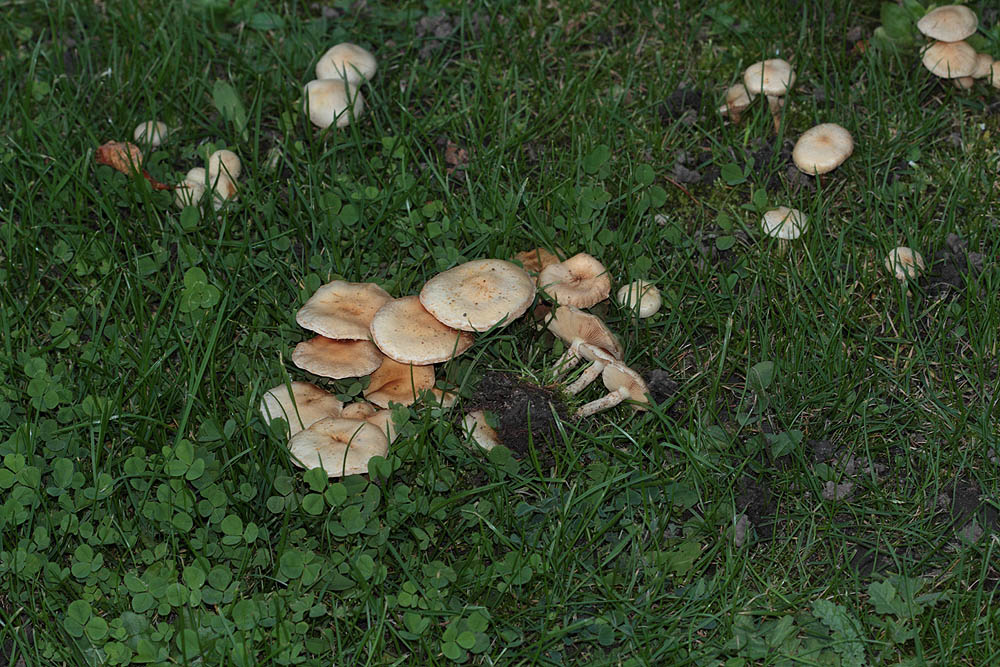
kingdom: Fungi
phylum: Basidiomycota
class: Agaricomycetes
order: Agaricales
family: Strophariaceae
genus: Pholiota
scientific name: Pholiota gummosa
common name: grøngul skælhat
